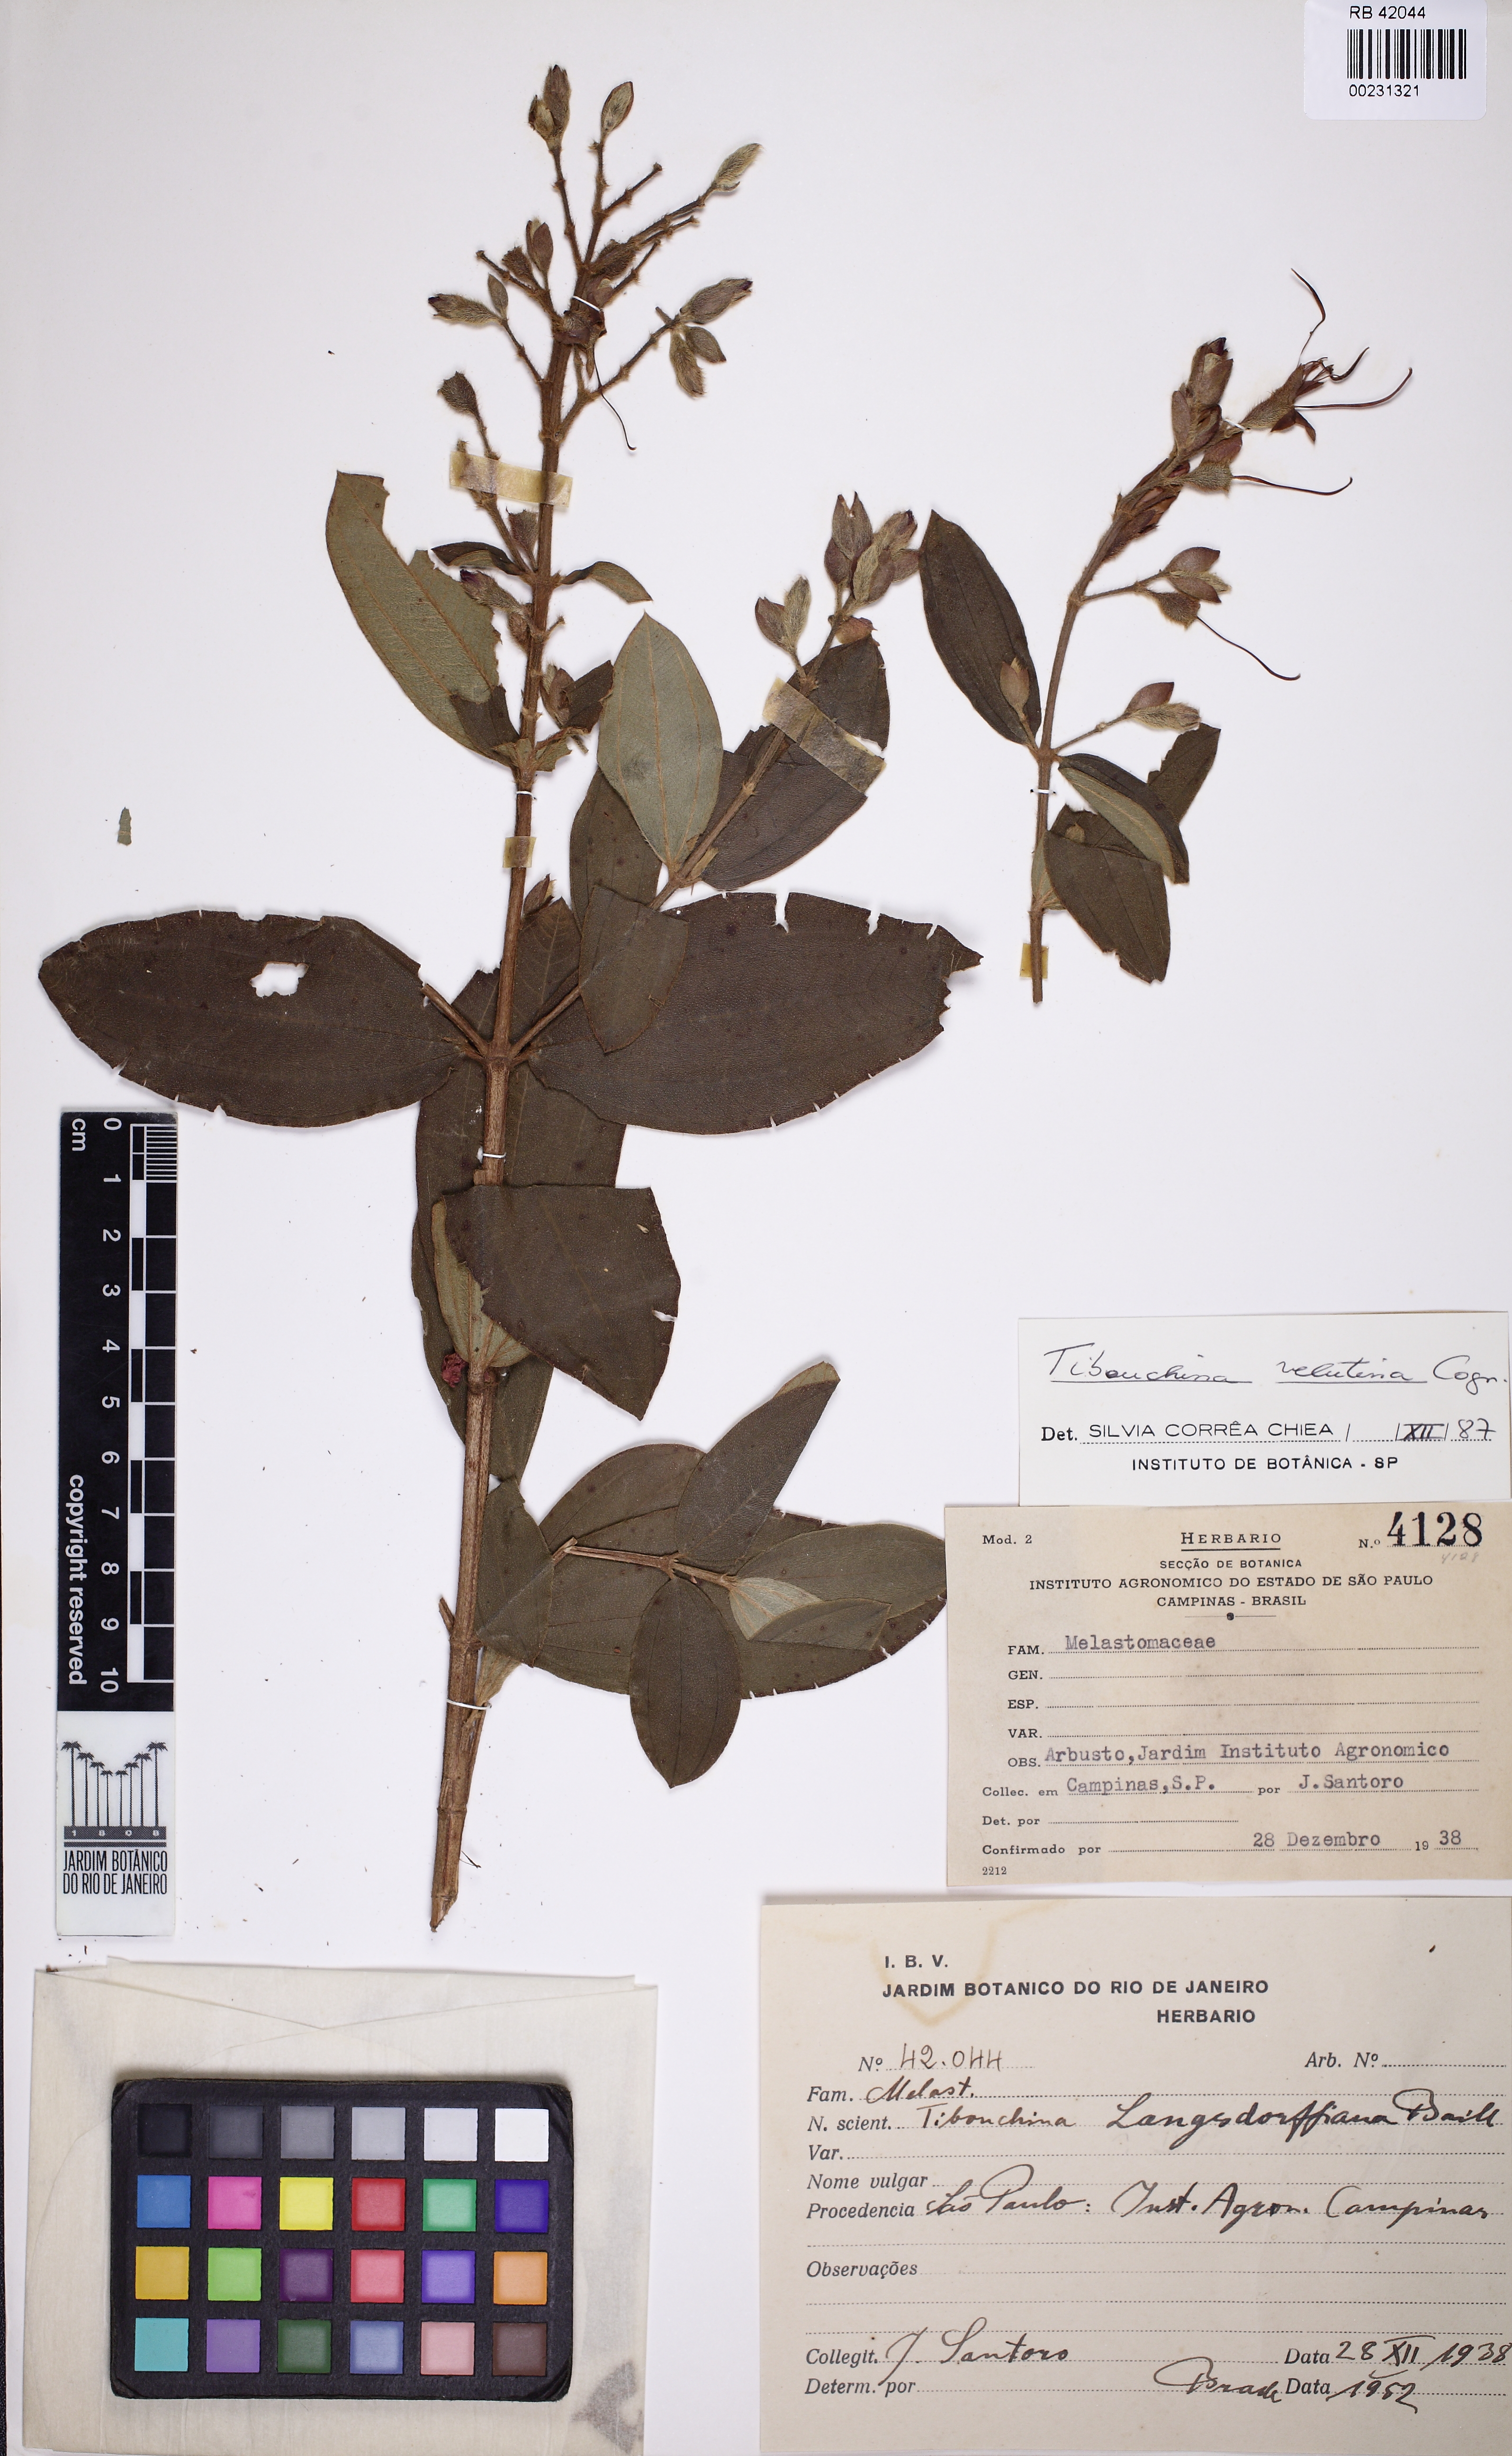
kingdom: Plantae
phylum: Tracheophyta
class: Magnoliopsida
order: Myrtales
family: Melastomataceae
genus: Pleroma
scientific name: Pleroma velutinum
